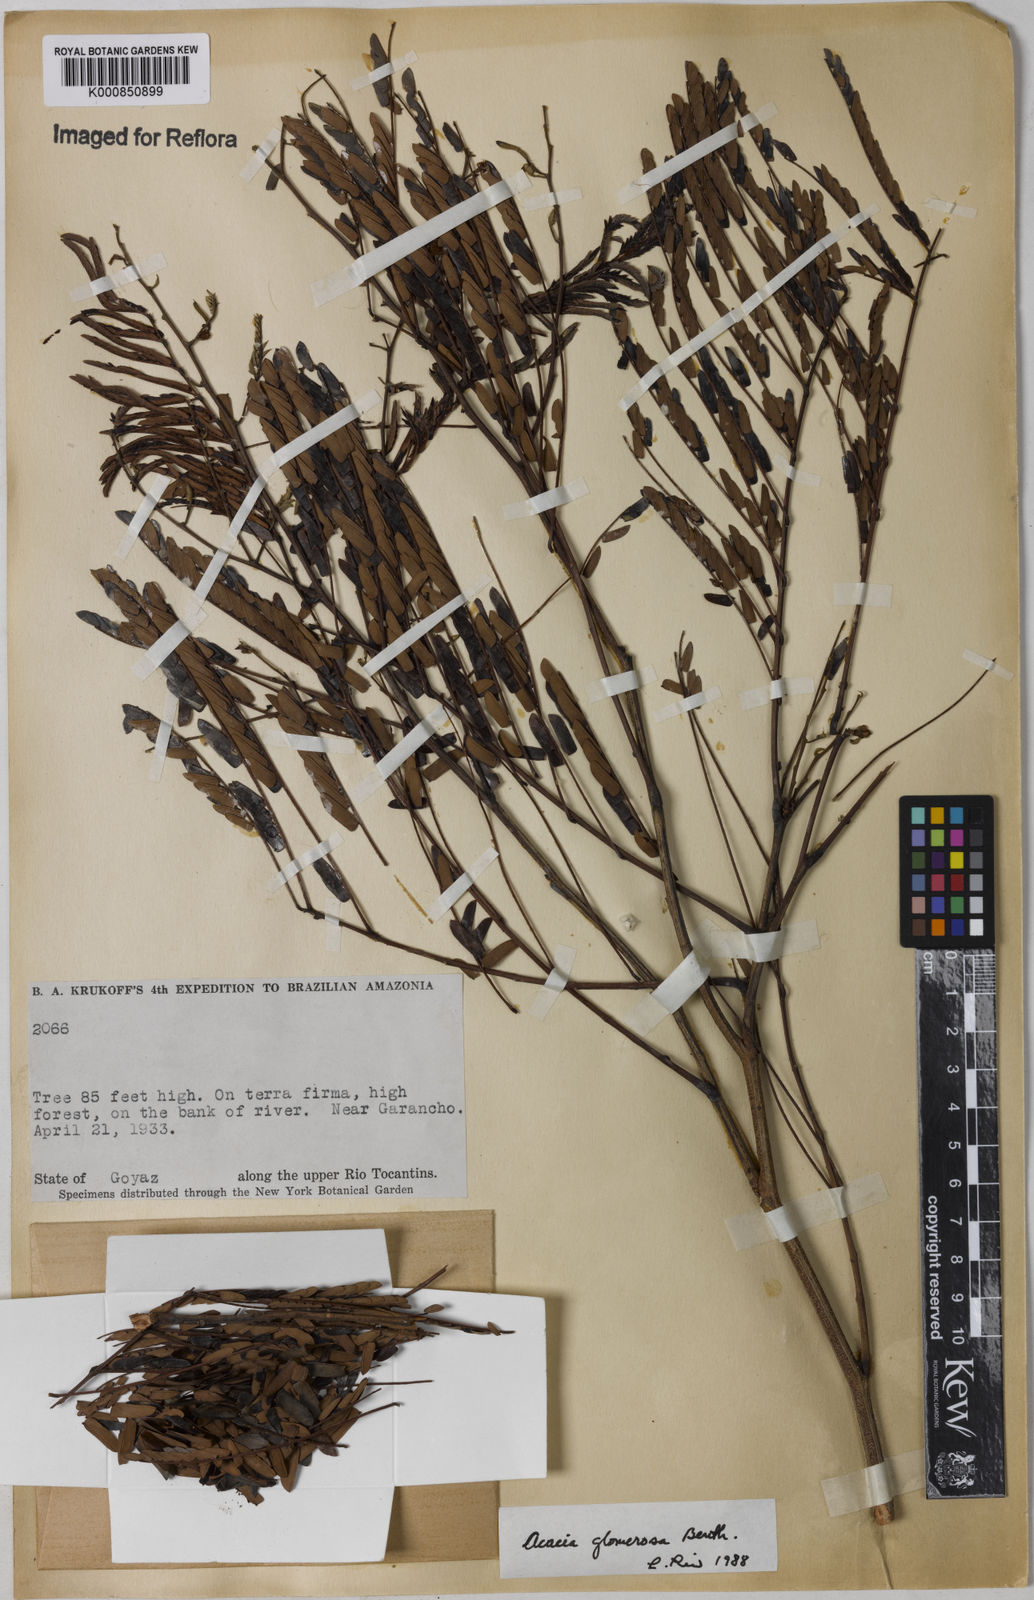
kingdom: Plantae
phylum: Tracheophyta
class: Magnoliopsida
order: Fabales
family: Fabaceae
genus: Senegalia
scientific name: Senegalia polyphylla
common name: White-tamarind
